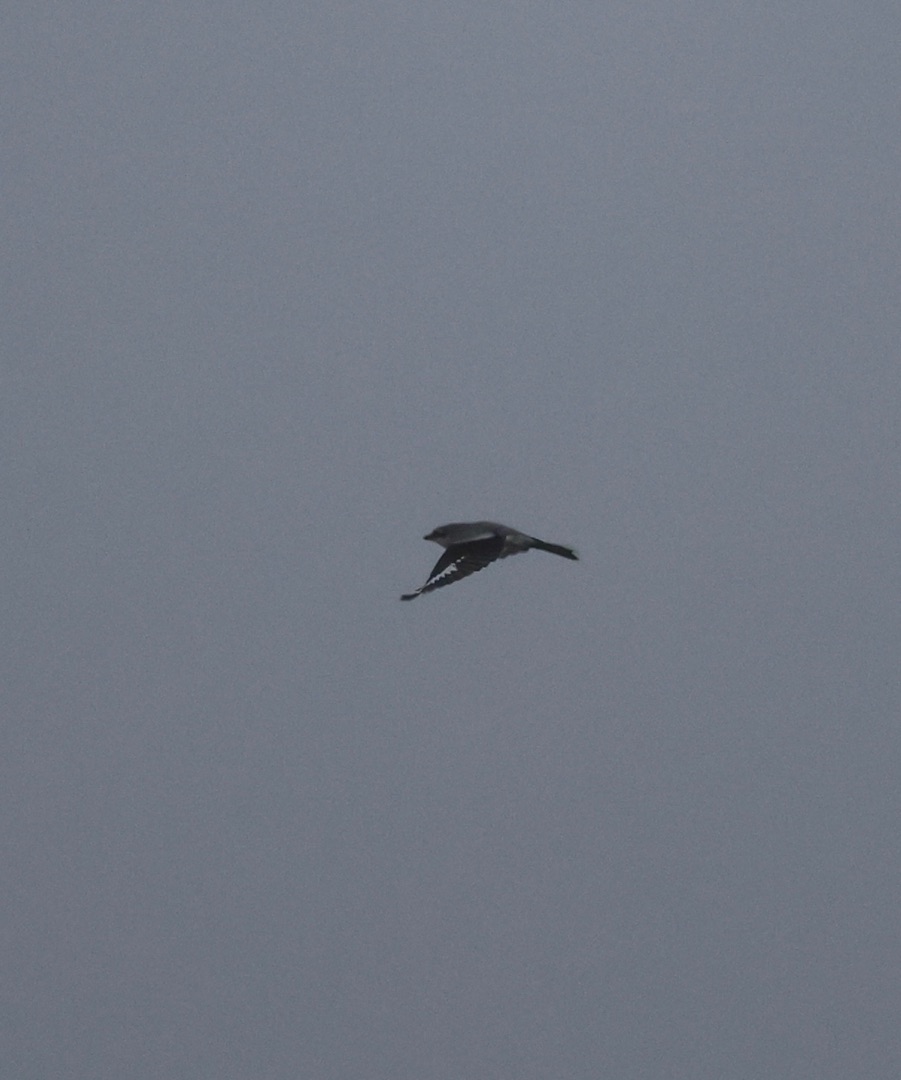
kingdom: Animalia
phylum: Chordata
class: Aves
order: Passeriformes
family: Laniidae
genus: Lanius
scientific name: Lanius excubitor
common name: Stor tornskade
